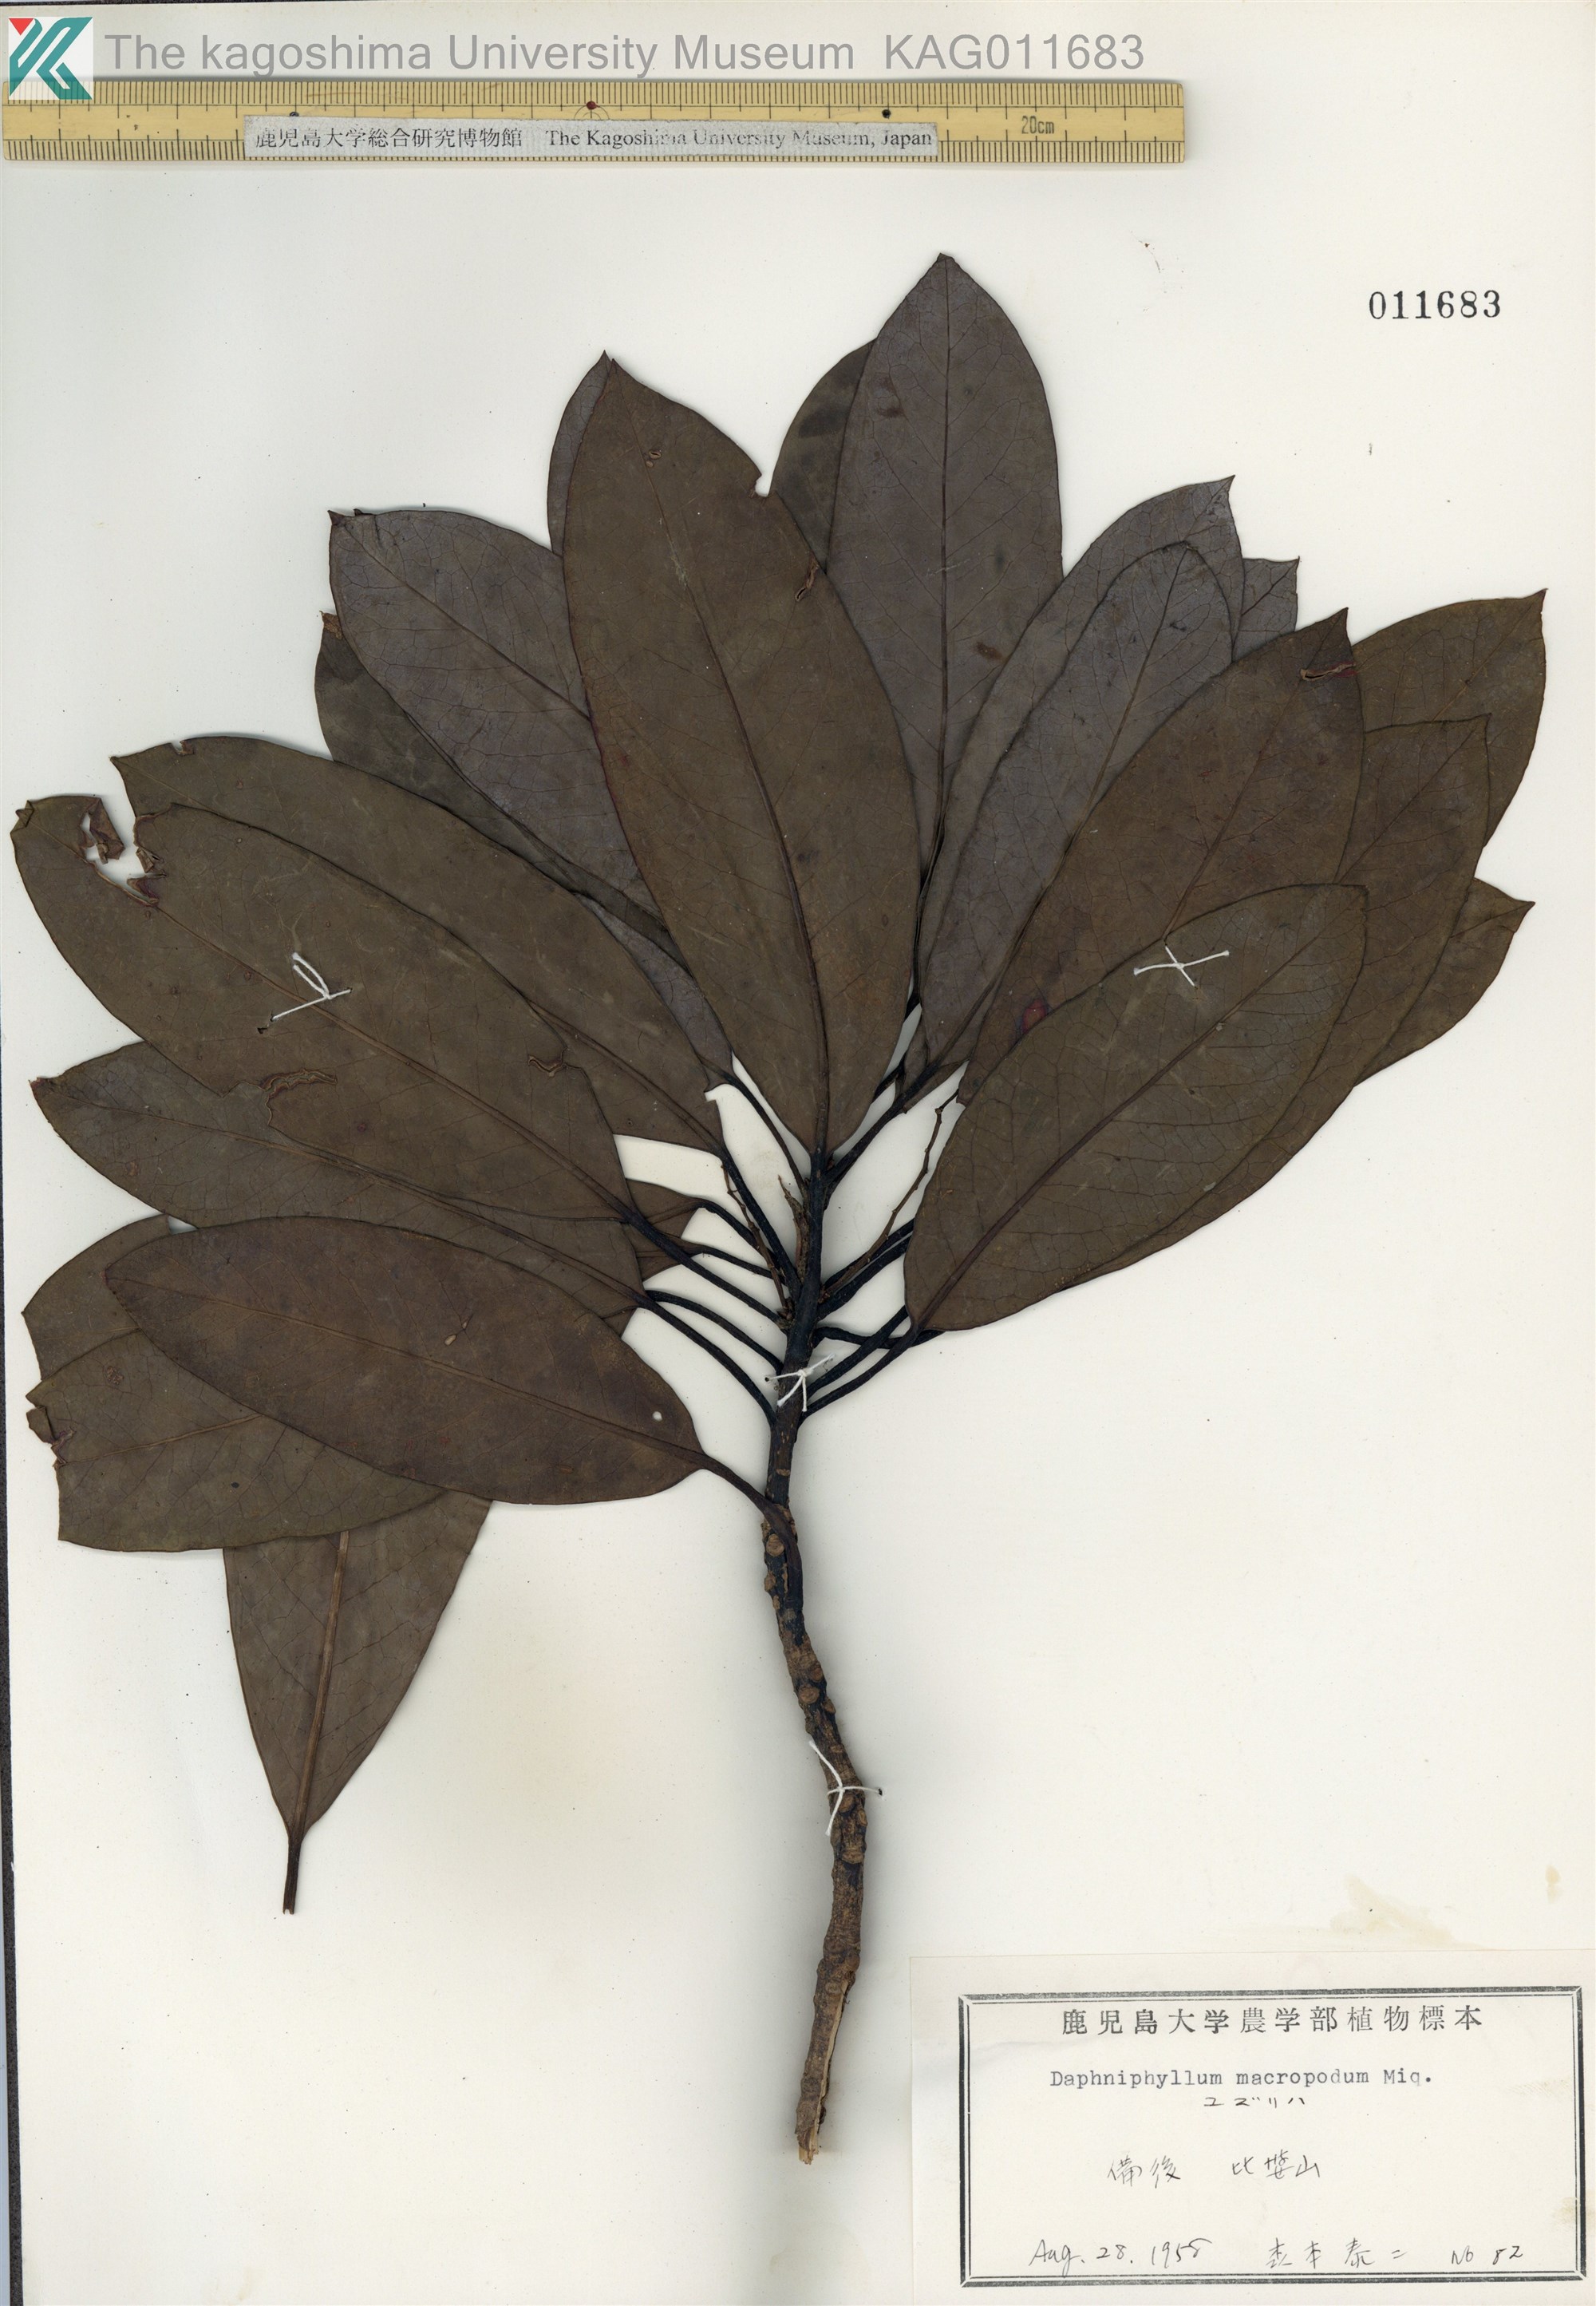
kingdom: Plantae
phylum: Tracheophyta
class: Magnoliopsida
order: Saxifragales
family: Daphniphyllaceae
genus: Daphniphyllum
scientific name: Daphniphyllum macropodum
